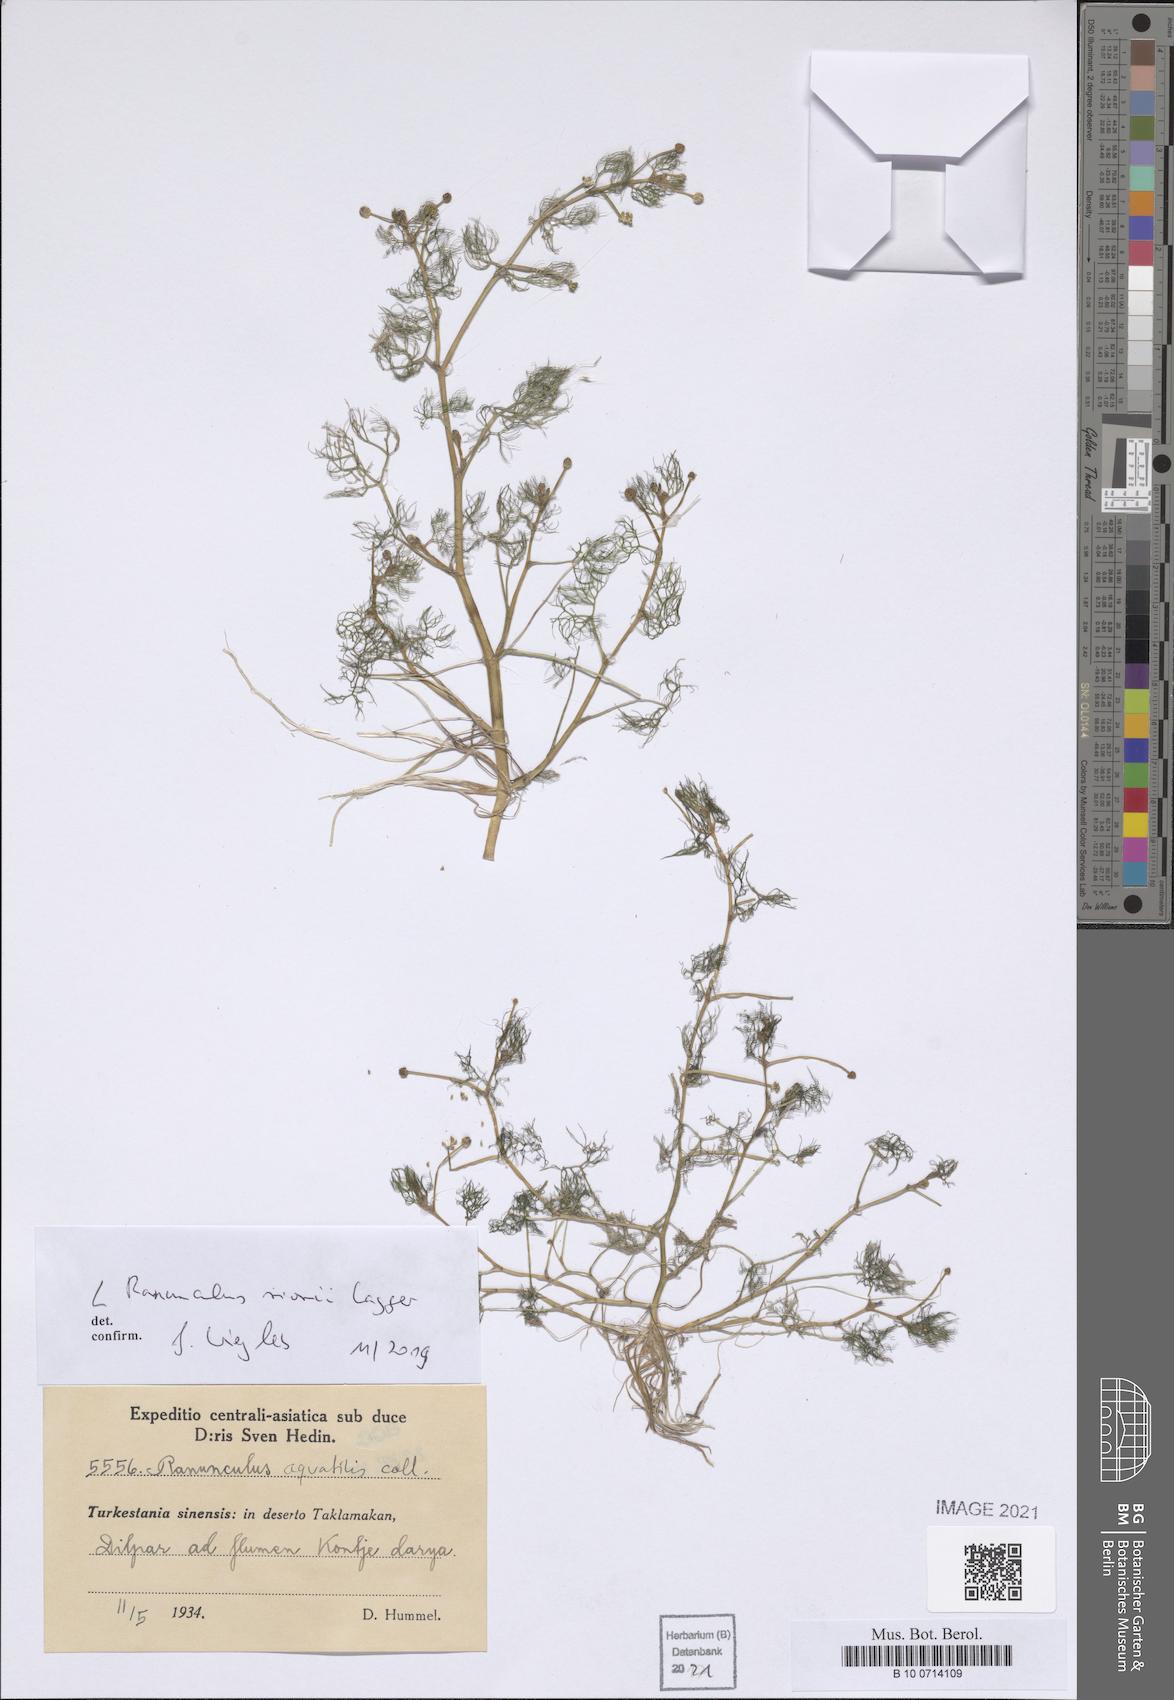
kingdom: Plantae
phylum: Tracheophyta
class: Magnoliopsida
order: Ranunculales
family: Ranunculaceae
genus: Ranunculus
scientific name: Ranunculus rionii
